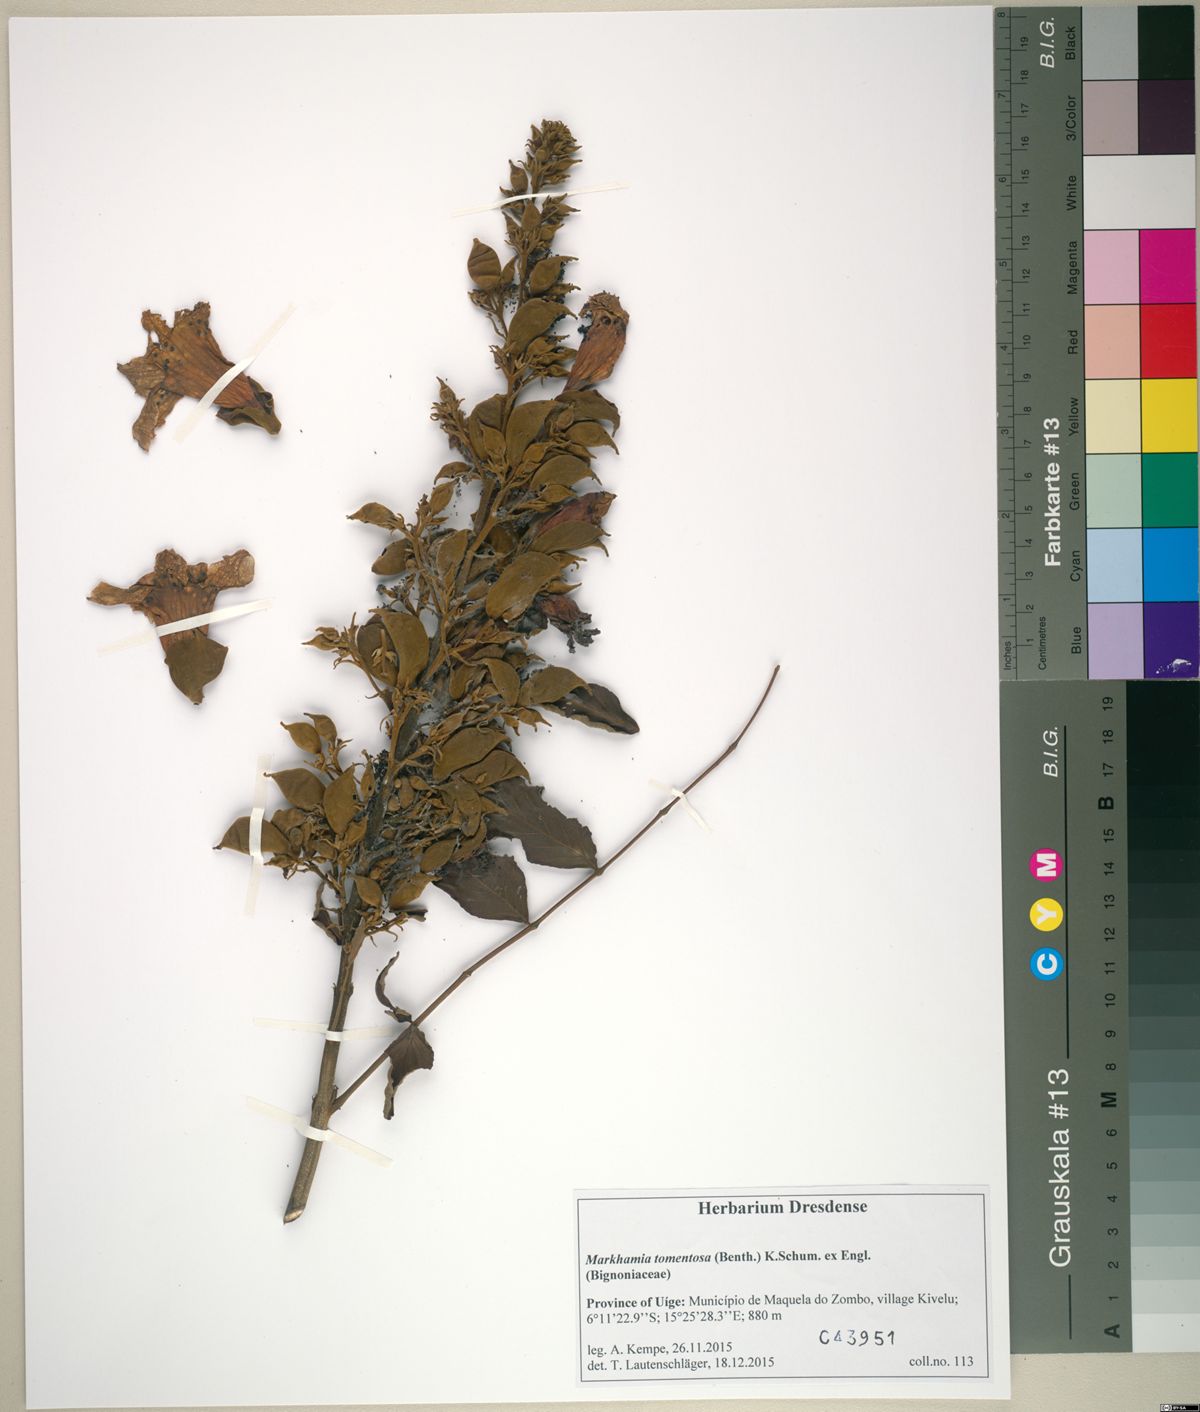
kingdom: Plantae
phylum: Tracheophyta
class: Magnoliopsida
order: Lamiales
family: Bignoniaceae
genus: Markhamia
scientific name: Markhamia tomentosa
